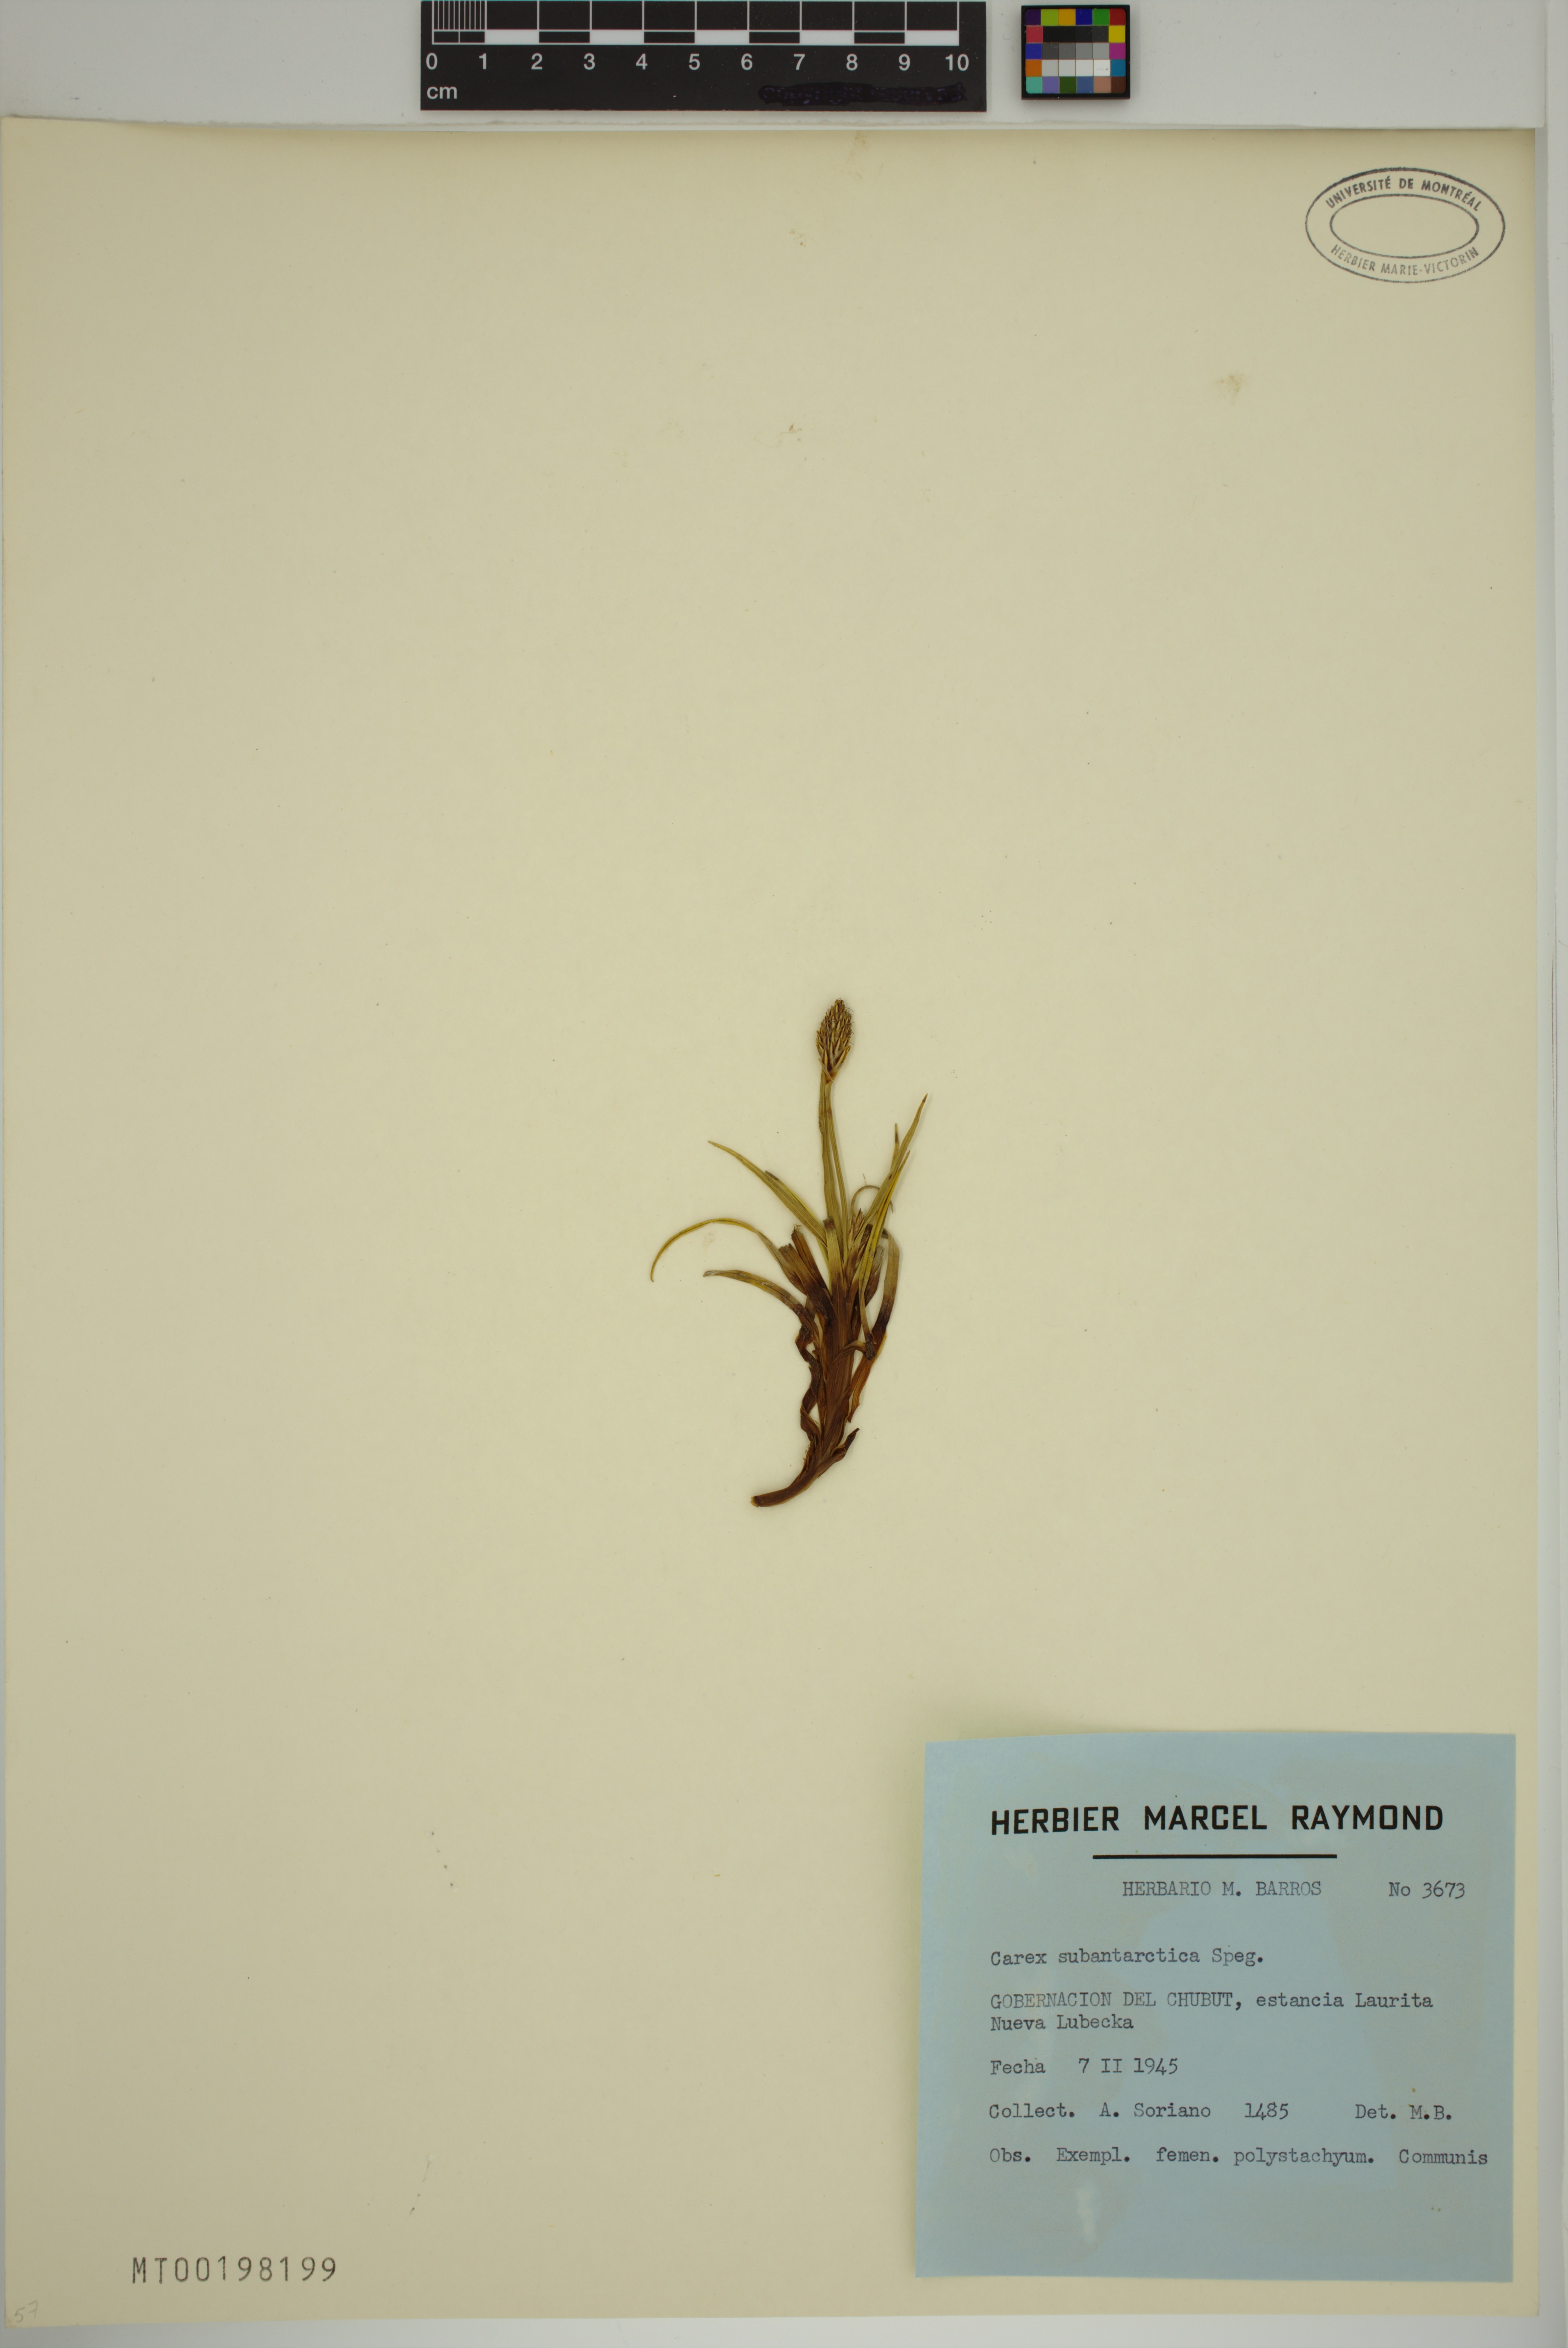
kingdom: Plantae
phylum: Tracheophyta
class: Liliopsida
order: Poales
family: Cyperaceae
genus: Carex
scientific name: Carex subantarctica
